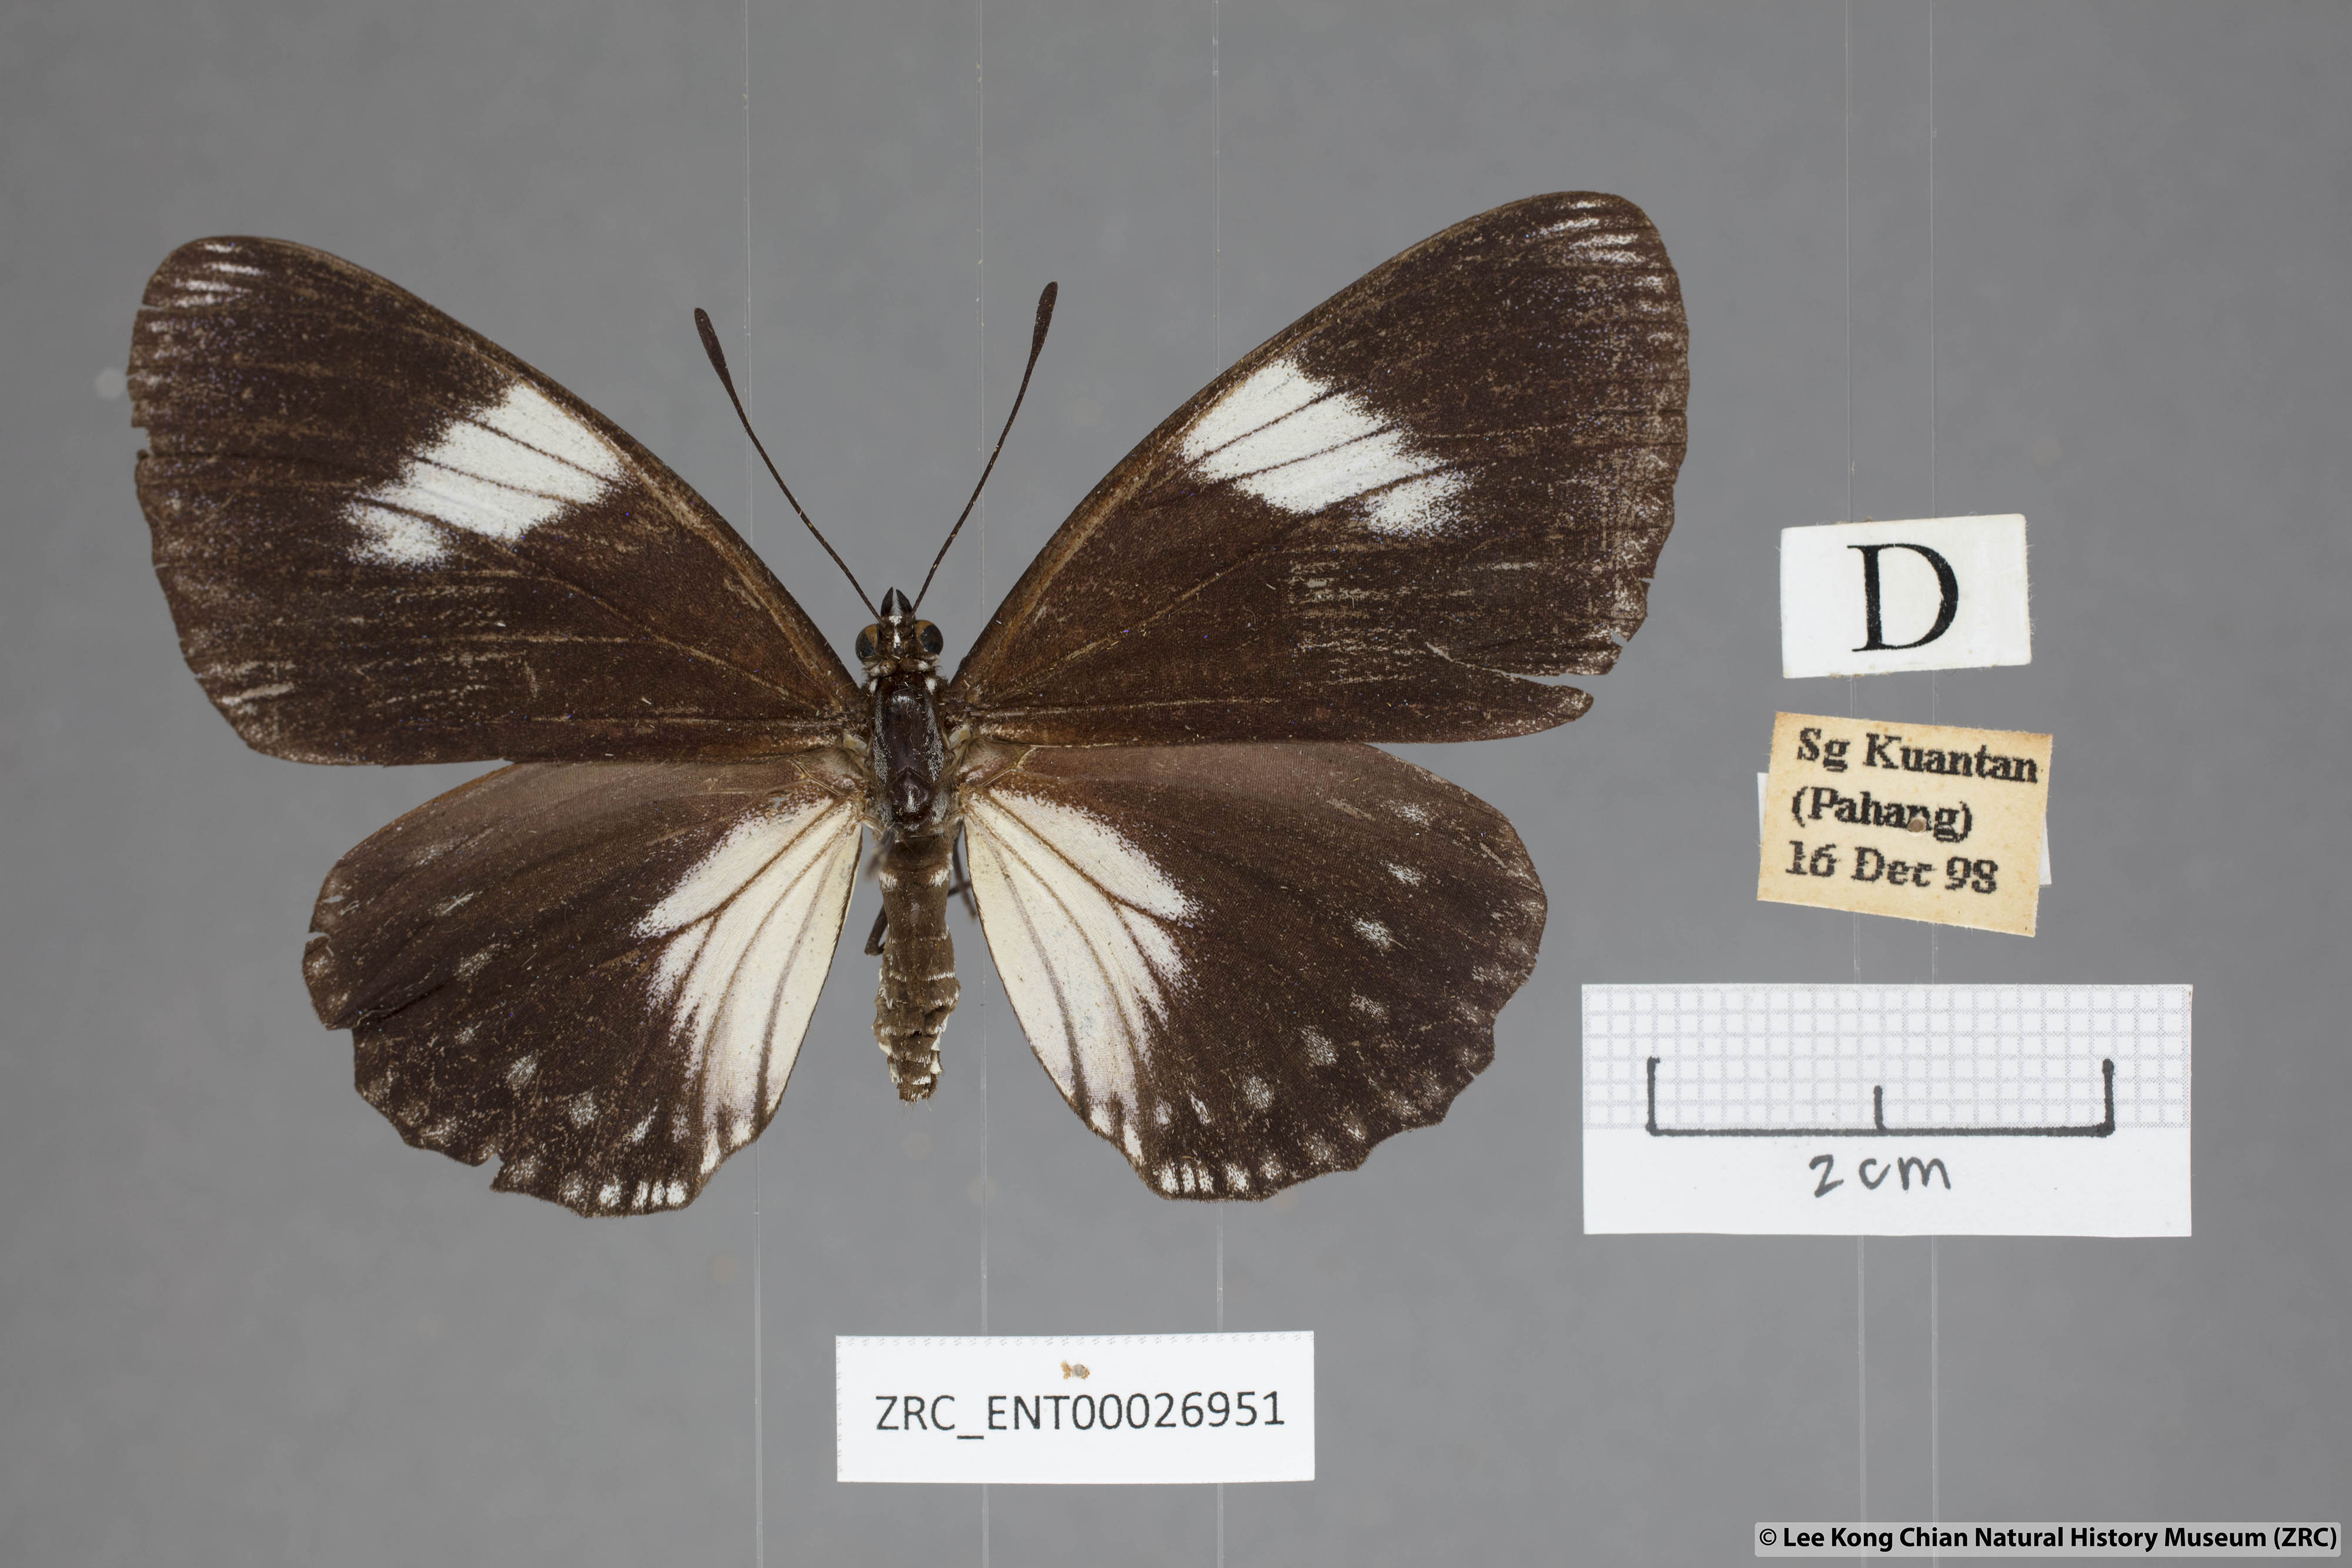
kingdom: Animalia
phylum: Arthropoda
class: Insecta
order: Lepidoptera
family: Nymphalidae
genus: Euripus
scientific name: Euripus nyctelius
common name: Courtesan
